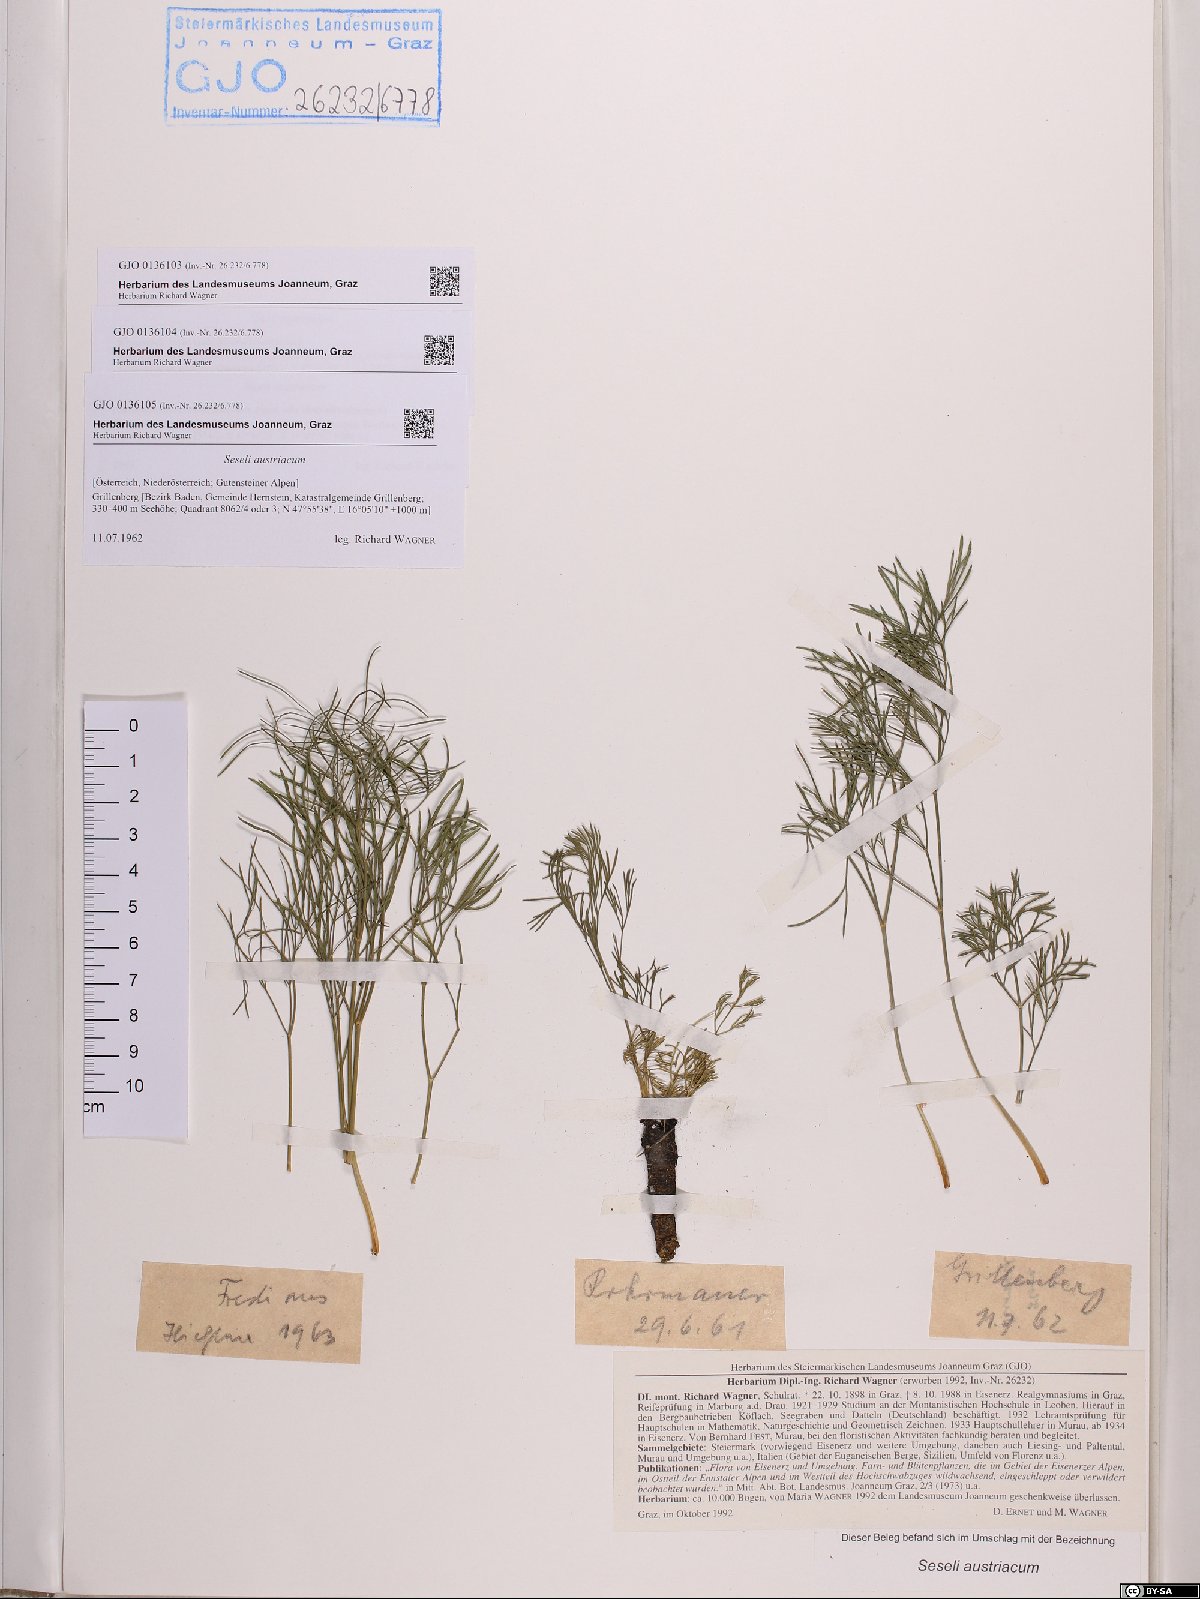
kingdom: Plantae
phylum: Tracheophyta
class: Magnoliopsida
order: Apiales
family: Apiaceae
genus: Seseli
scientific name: Seseli austriacum
